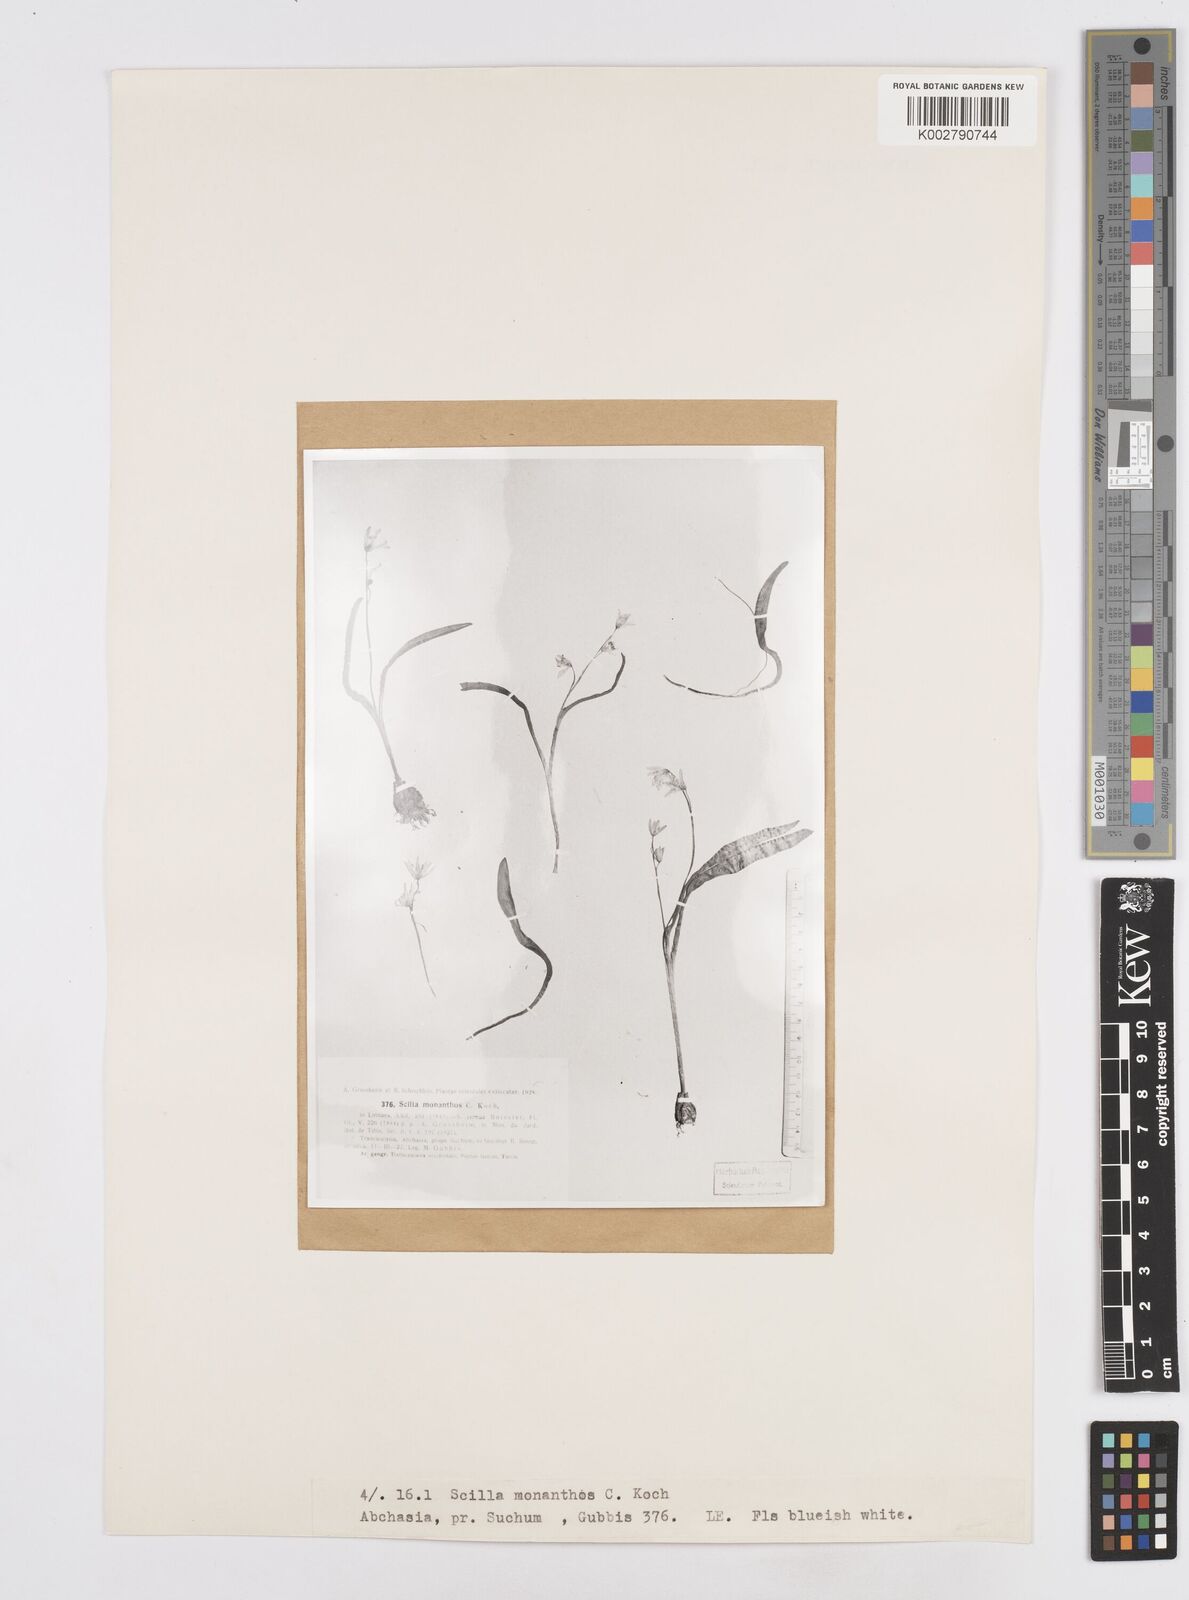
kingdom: Plantae
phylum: Tracheophyta
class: Liliopsida
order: Asparagales
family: Asparagaceae
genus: Scilla
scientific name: Scilla monanthos
